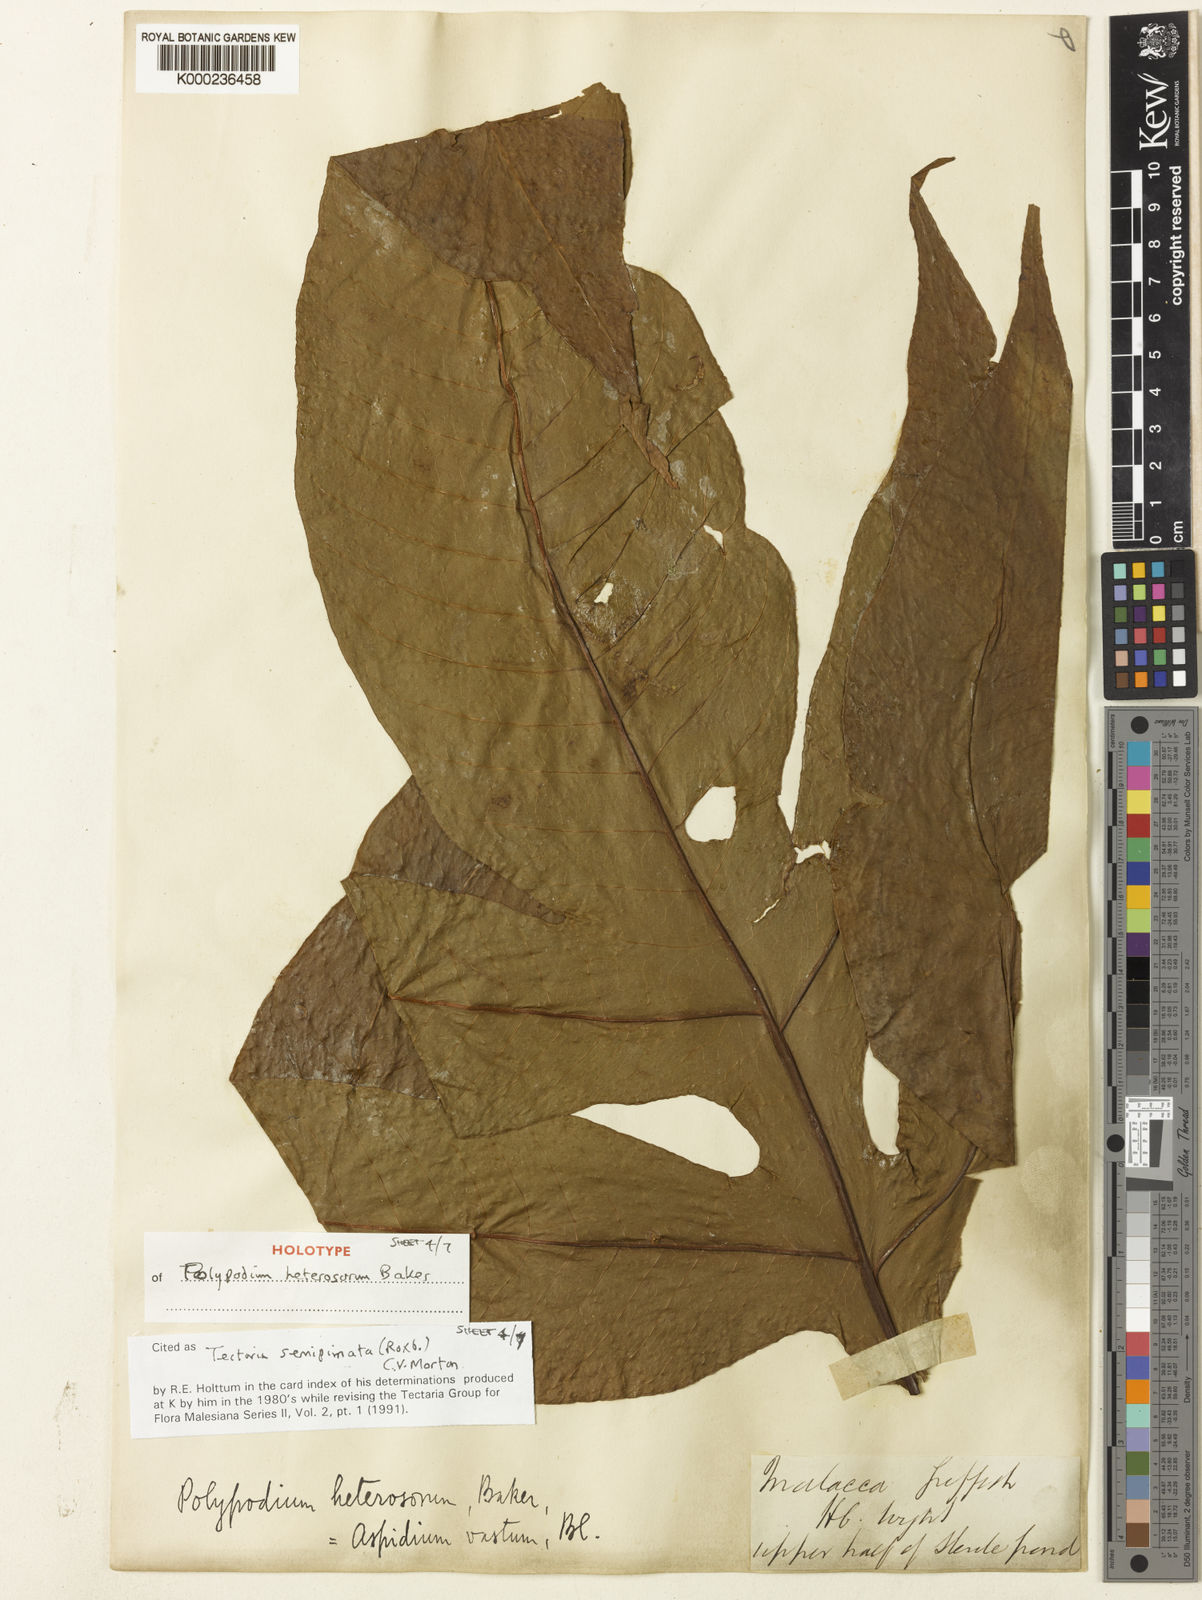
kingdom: Plantae
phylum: Tracheophyta
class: Polypodiopsida
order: Polypodiales
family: Tectariaceae
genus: Tectaria
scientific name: Tectaria semipinnata
